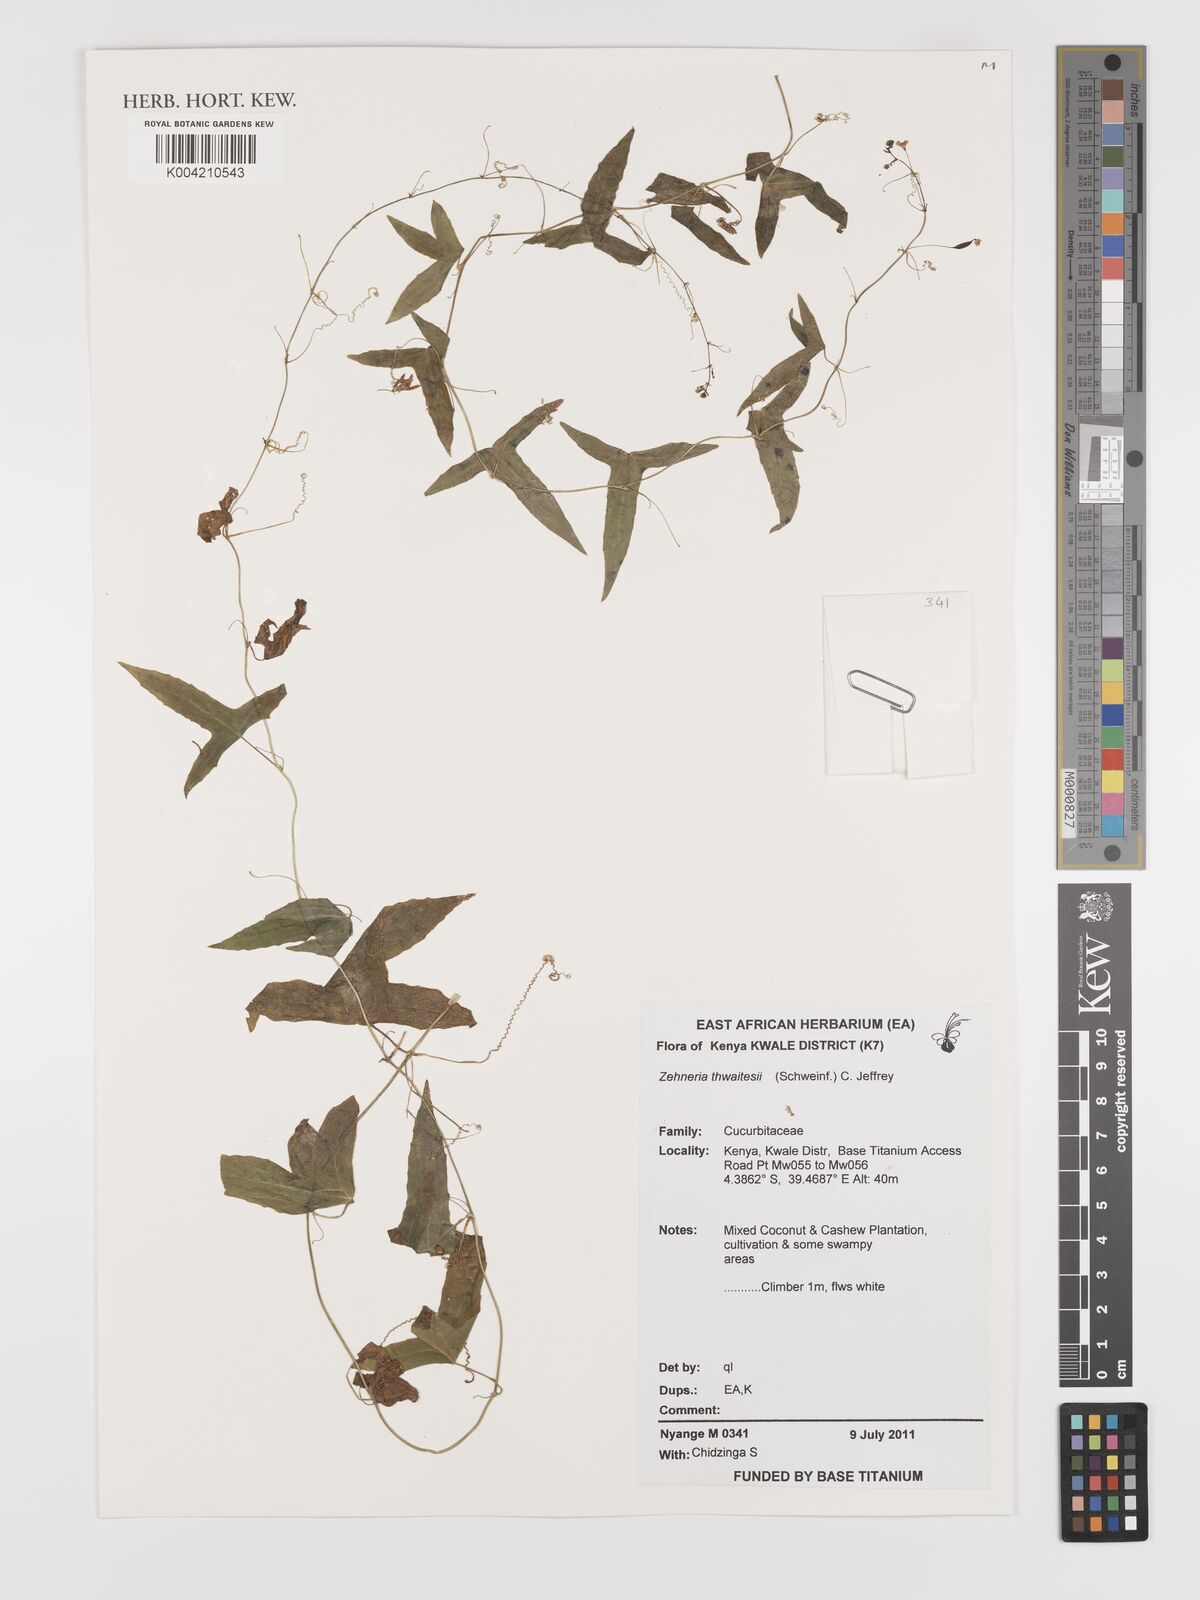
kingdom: Plantae
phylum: Tracheophyta
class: Magnoliopsida
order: Cucurbitales
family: Cucurbitaceae
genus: Zehneria
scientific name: Zehneria thwaitesii
